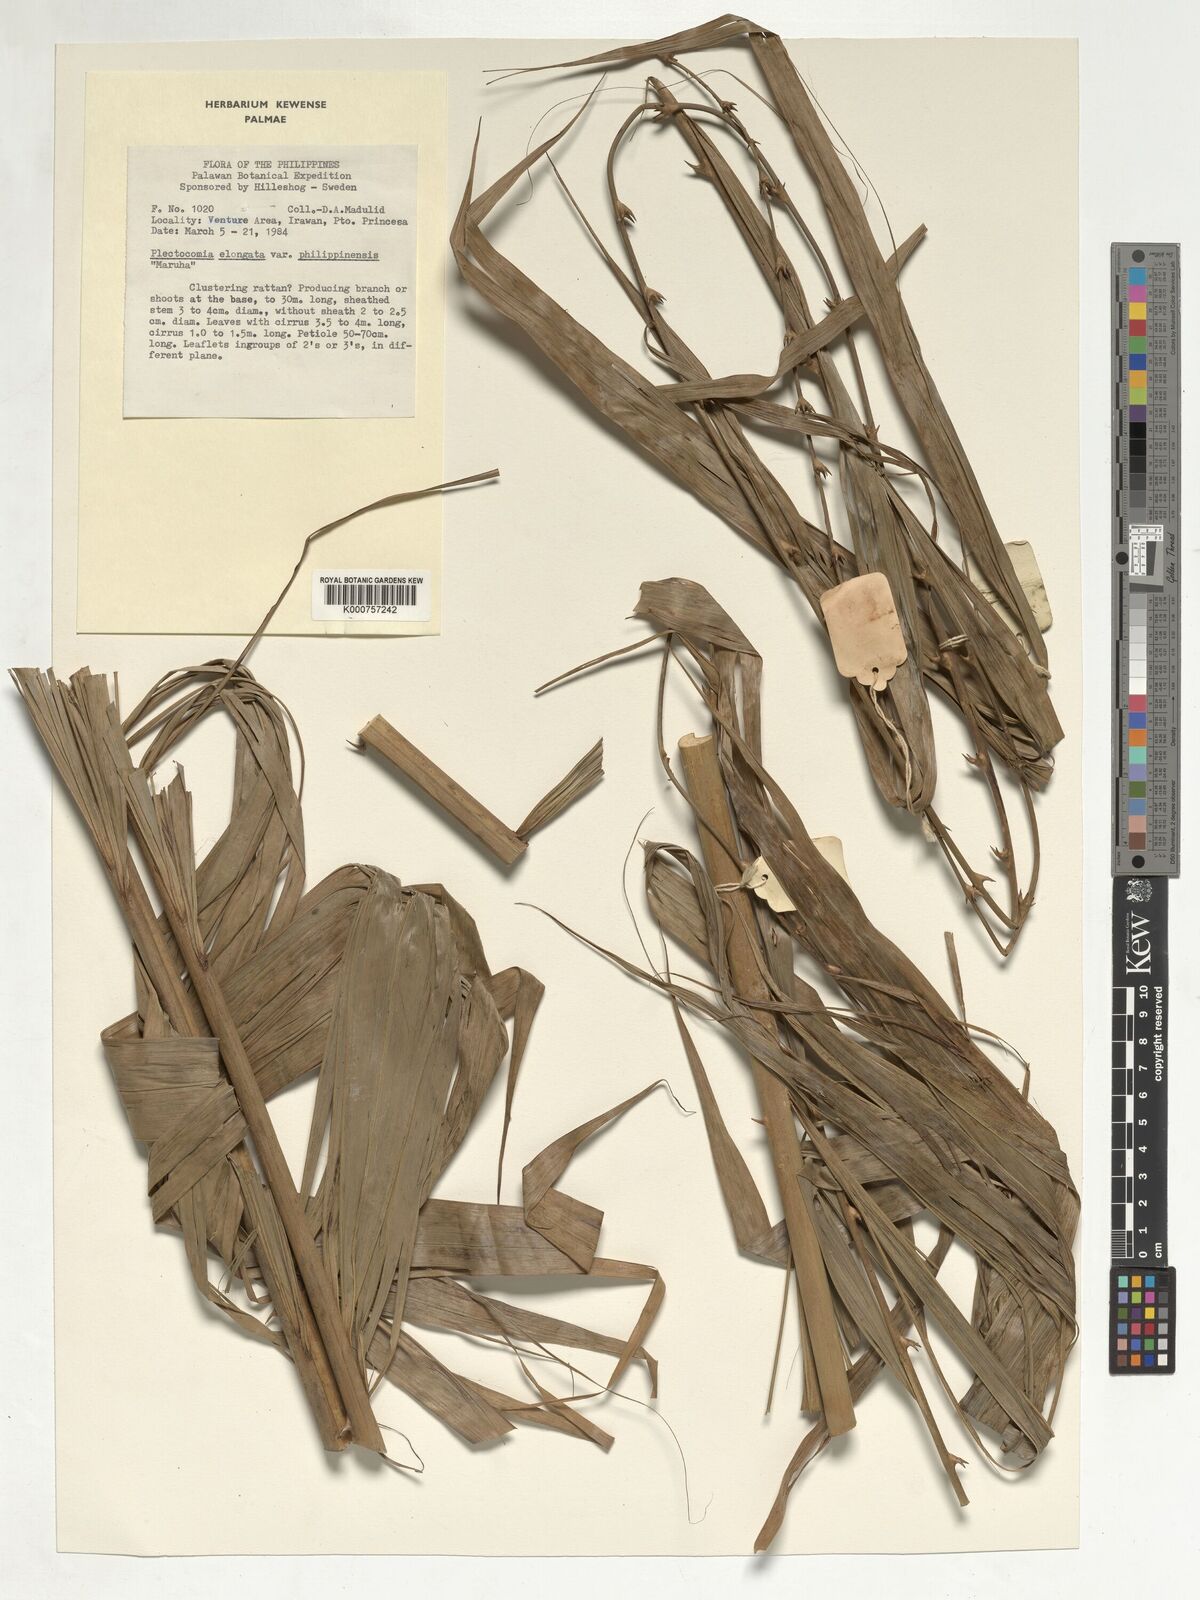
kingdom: Plantae
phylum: Tracheophyta
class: Liliopsida
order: Arecales
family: Arecaceae
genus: Plectocomia
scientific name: Plectocomia elongata
